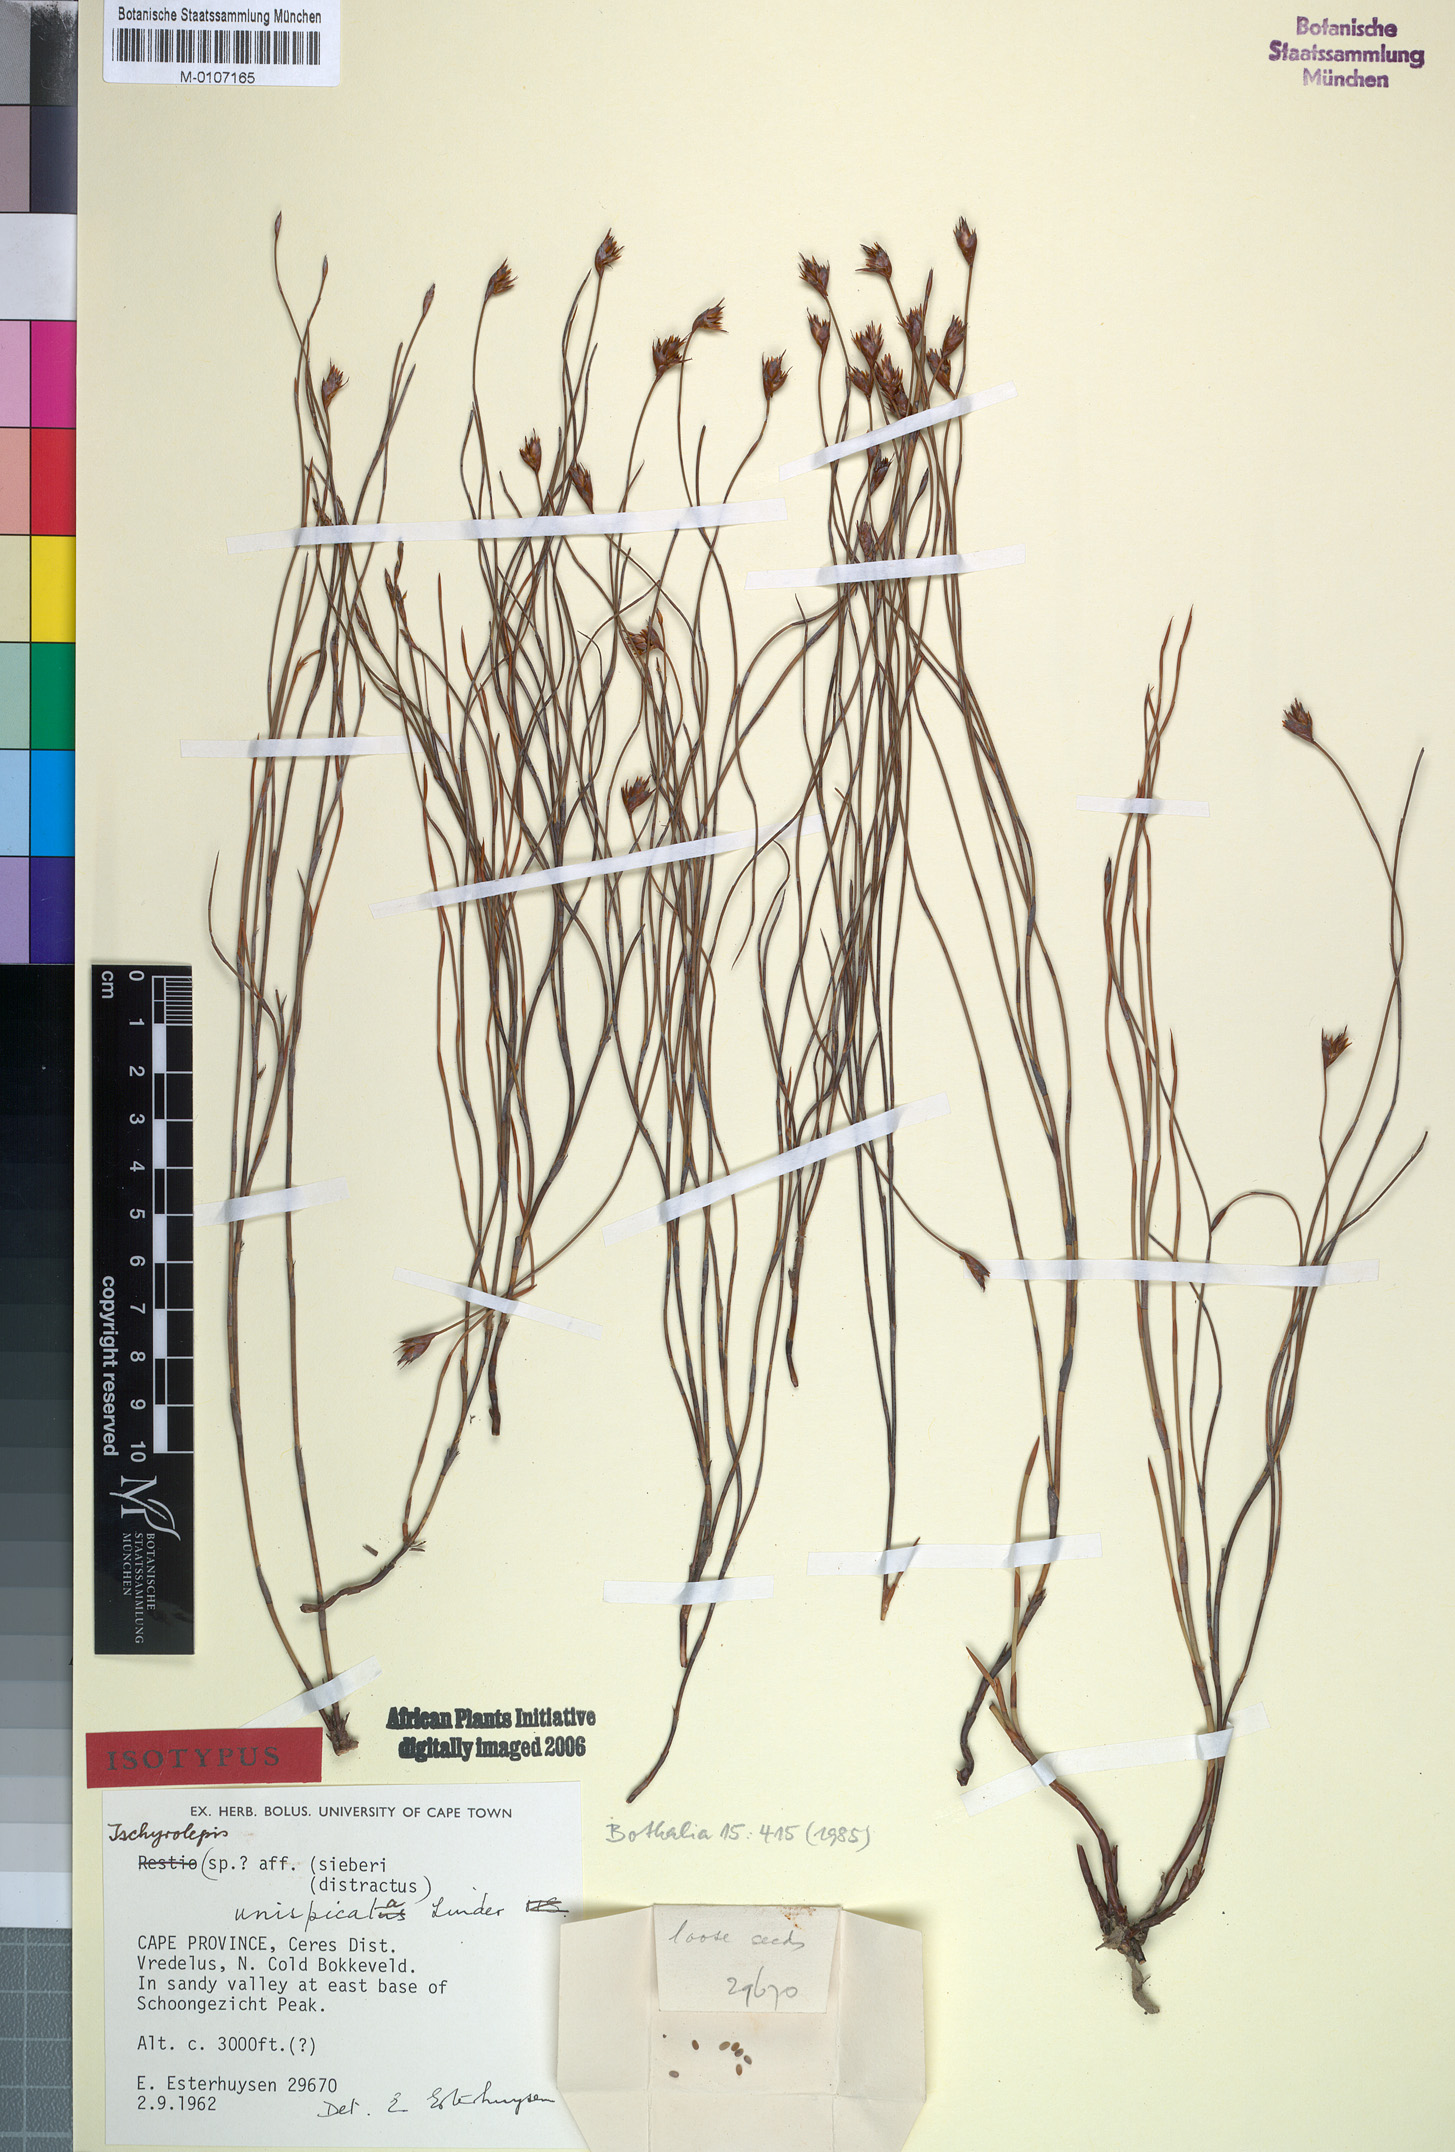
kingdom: Plantae
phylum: Tracheophyta
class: Liliopsida
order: Poales
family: Restionaceae
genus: Restio
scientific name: Restio unispicatus
